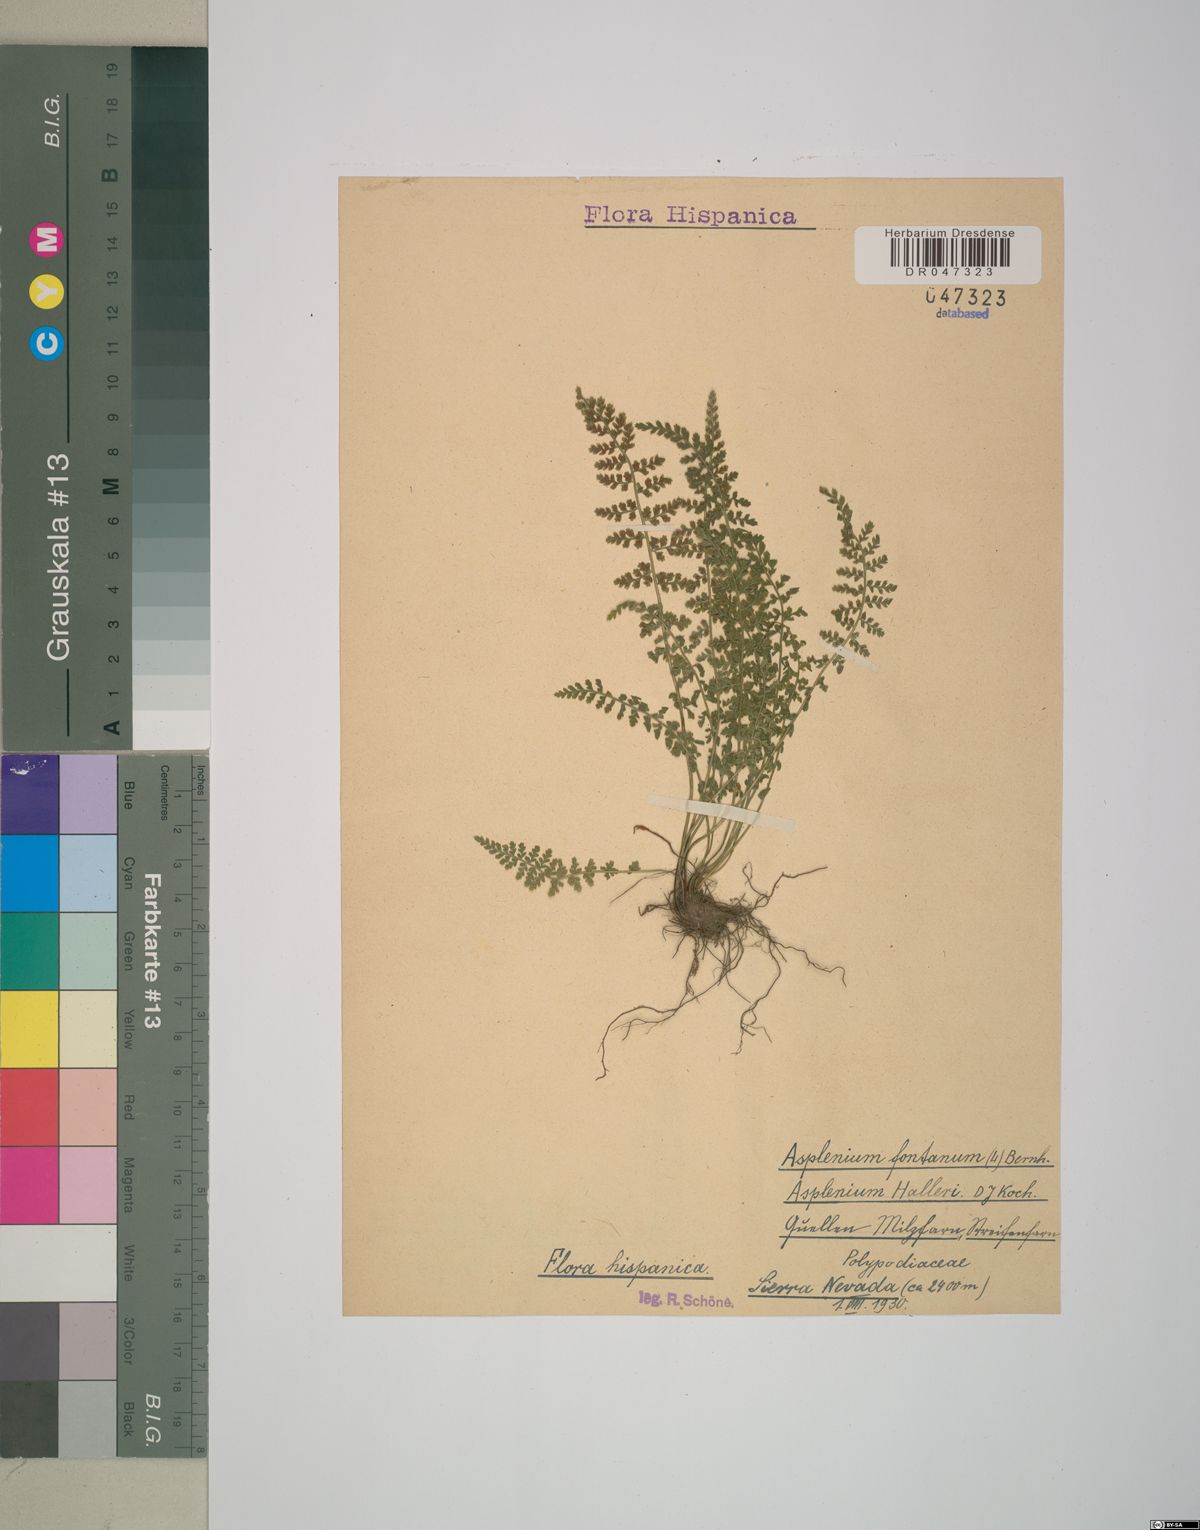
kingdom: Plantae
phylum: Tracheophyta
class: Polypodiopsida
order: Polypodiales
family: Aspleniaceae
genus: Asplenium
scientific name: Asplenium fontanum
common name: Fountain spleenwort
